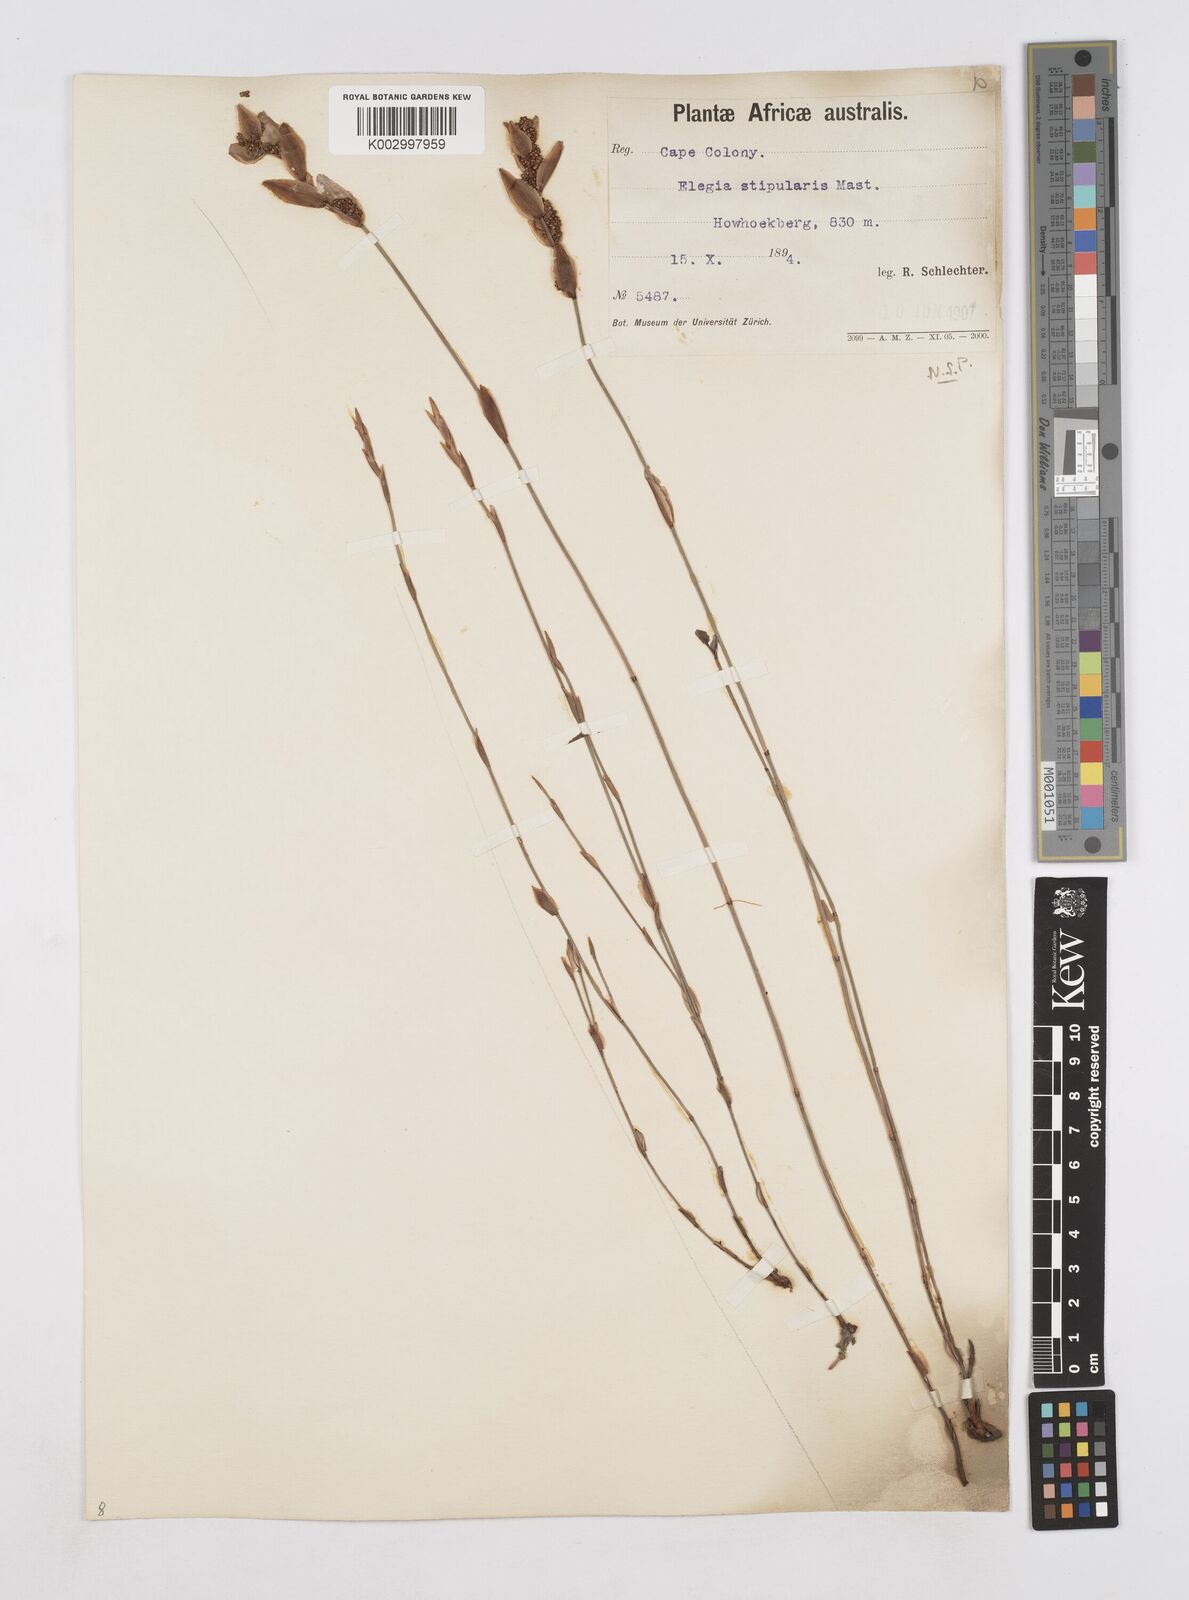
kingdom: Plantae
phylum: Tracheophyta
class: Liliopsida
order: Poales
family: Restionaceae
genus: Elegia
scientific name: Elegia stipularis
